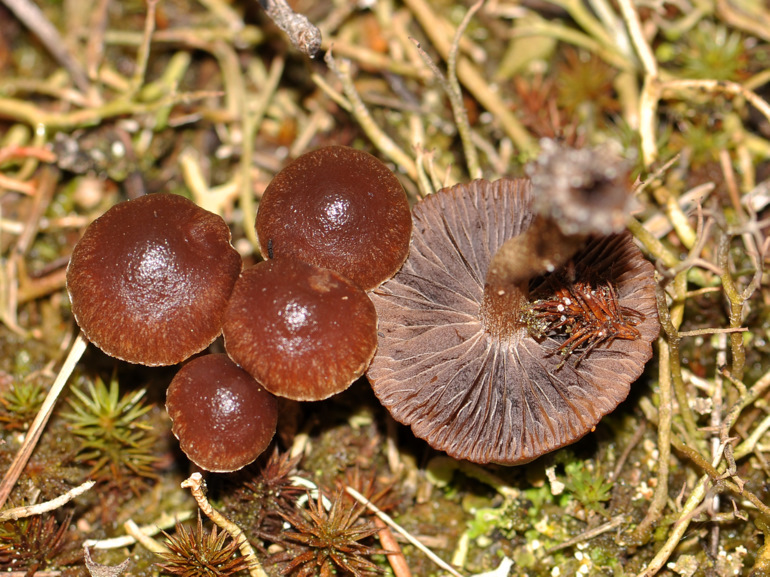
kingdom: Fungi
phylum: Basidiomycota
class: Agaricomycetes
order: Agaricales
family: Strophariaceae
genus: Deconica
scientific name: Deconica montana
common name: rødbrun stråhat
